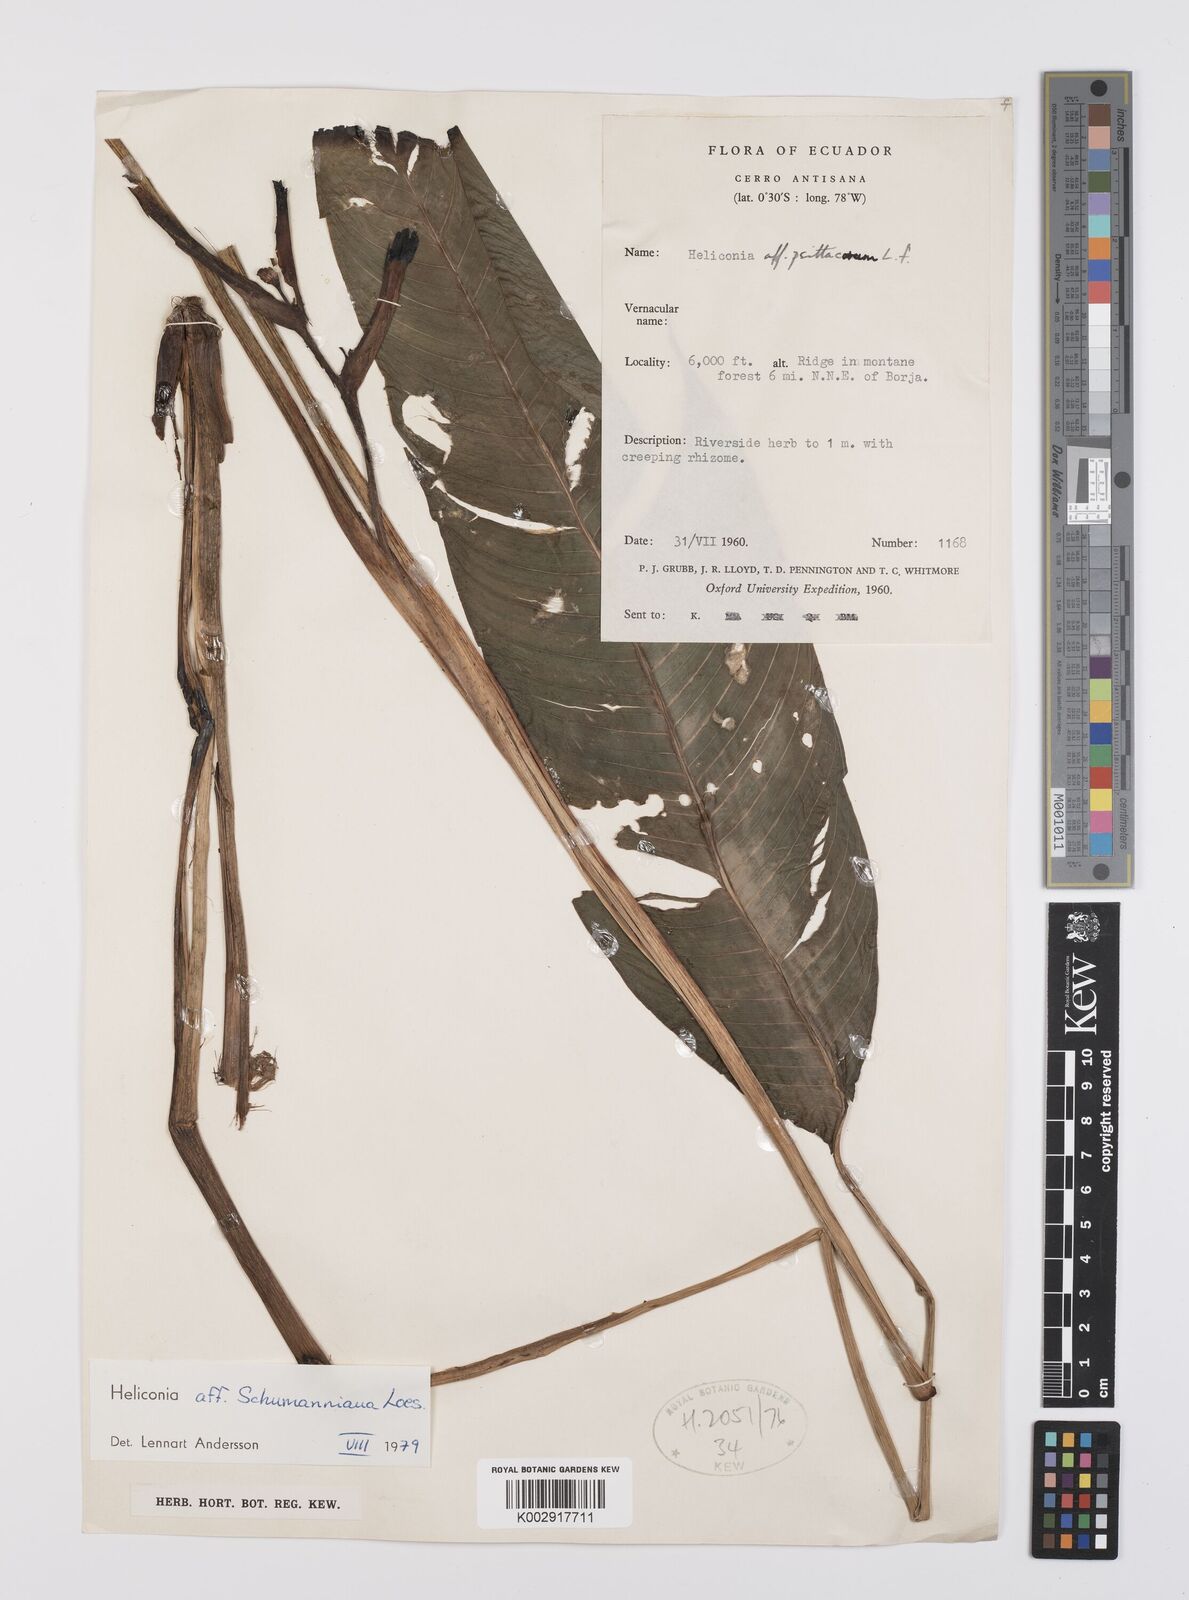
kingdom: Plantae
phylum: Tracheophyta
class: Liliopsida
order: Zingiberales
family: Heliconiaceae
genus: Heliconia
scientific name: Heliconia schumanniana
